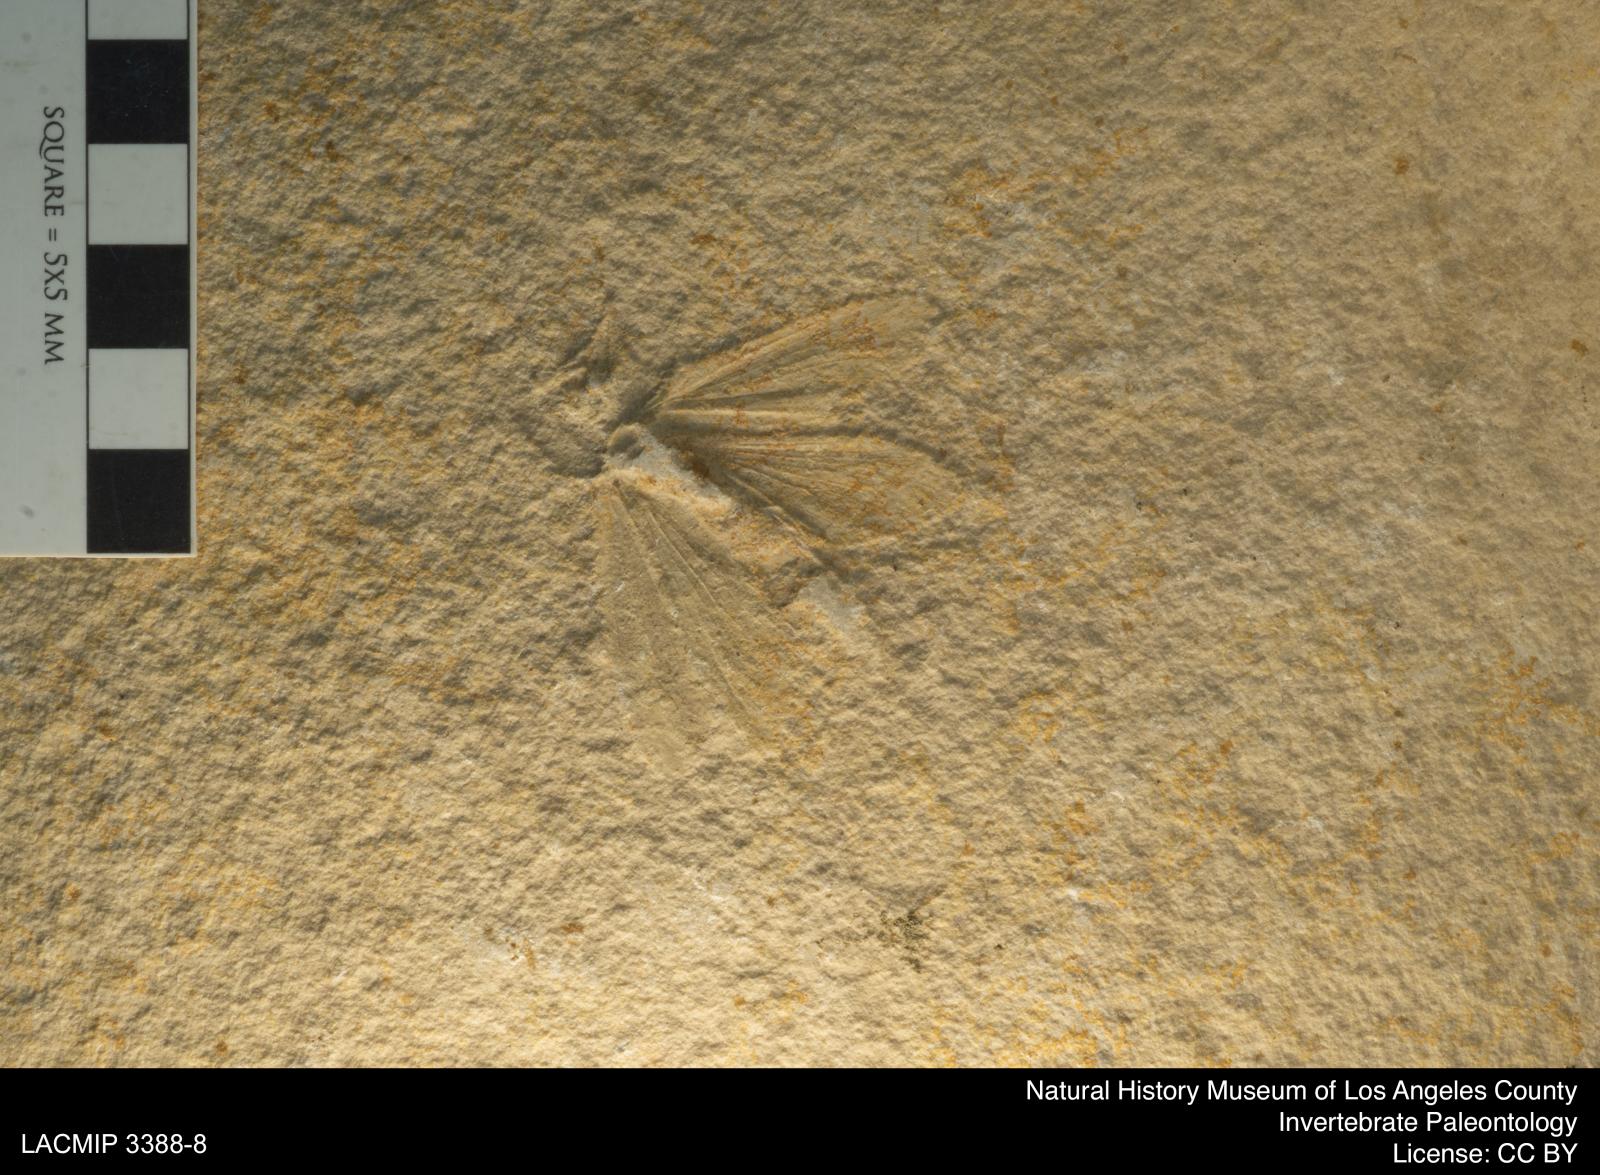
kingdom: Animalia
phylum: Arthropoda
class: Insecta
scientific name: Insecta
